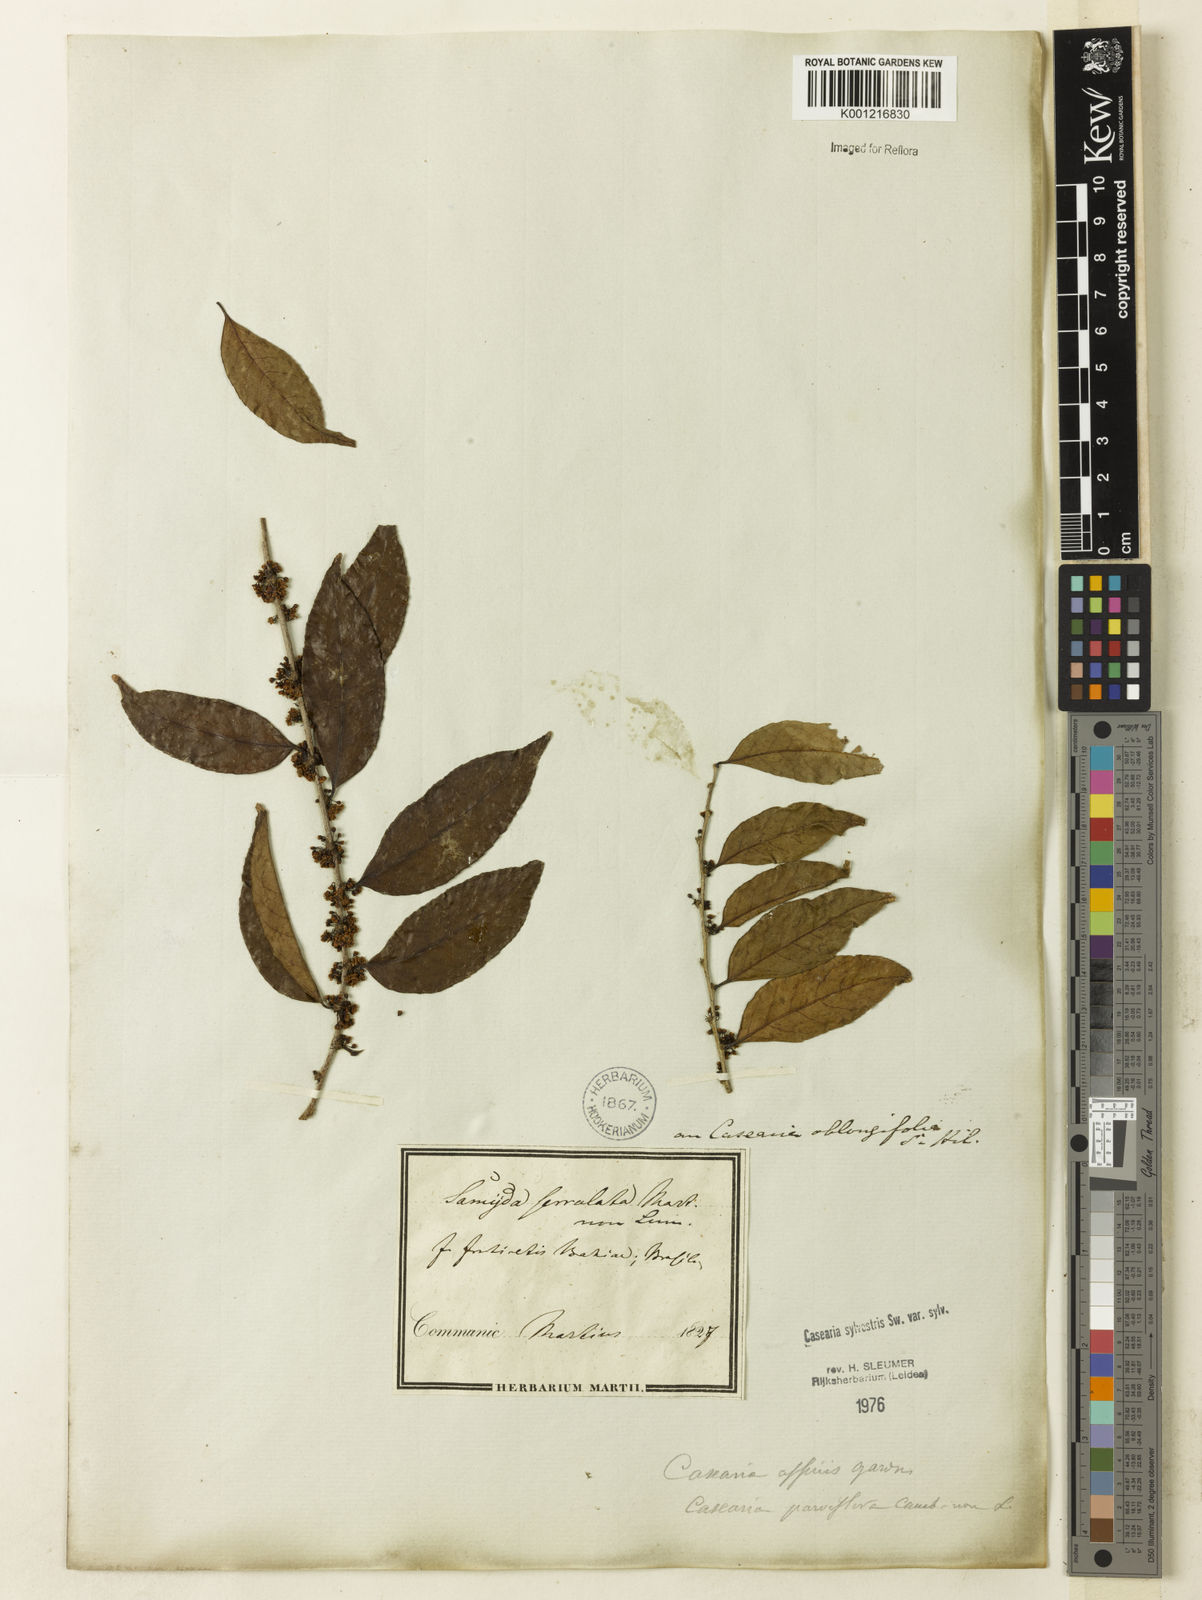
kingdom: Plantae
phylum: Tracheophyta
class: Magnoliopsida
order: Malpighiales
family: Salicaceae
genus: Casearia
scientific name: Casearia sylvestris
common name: Wild sage
